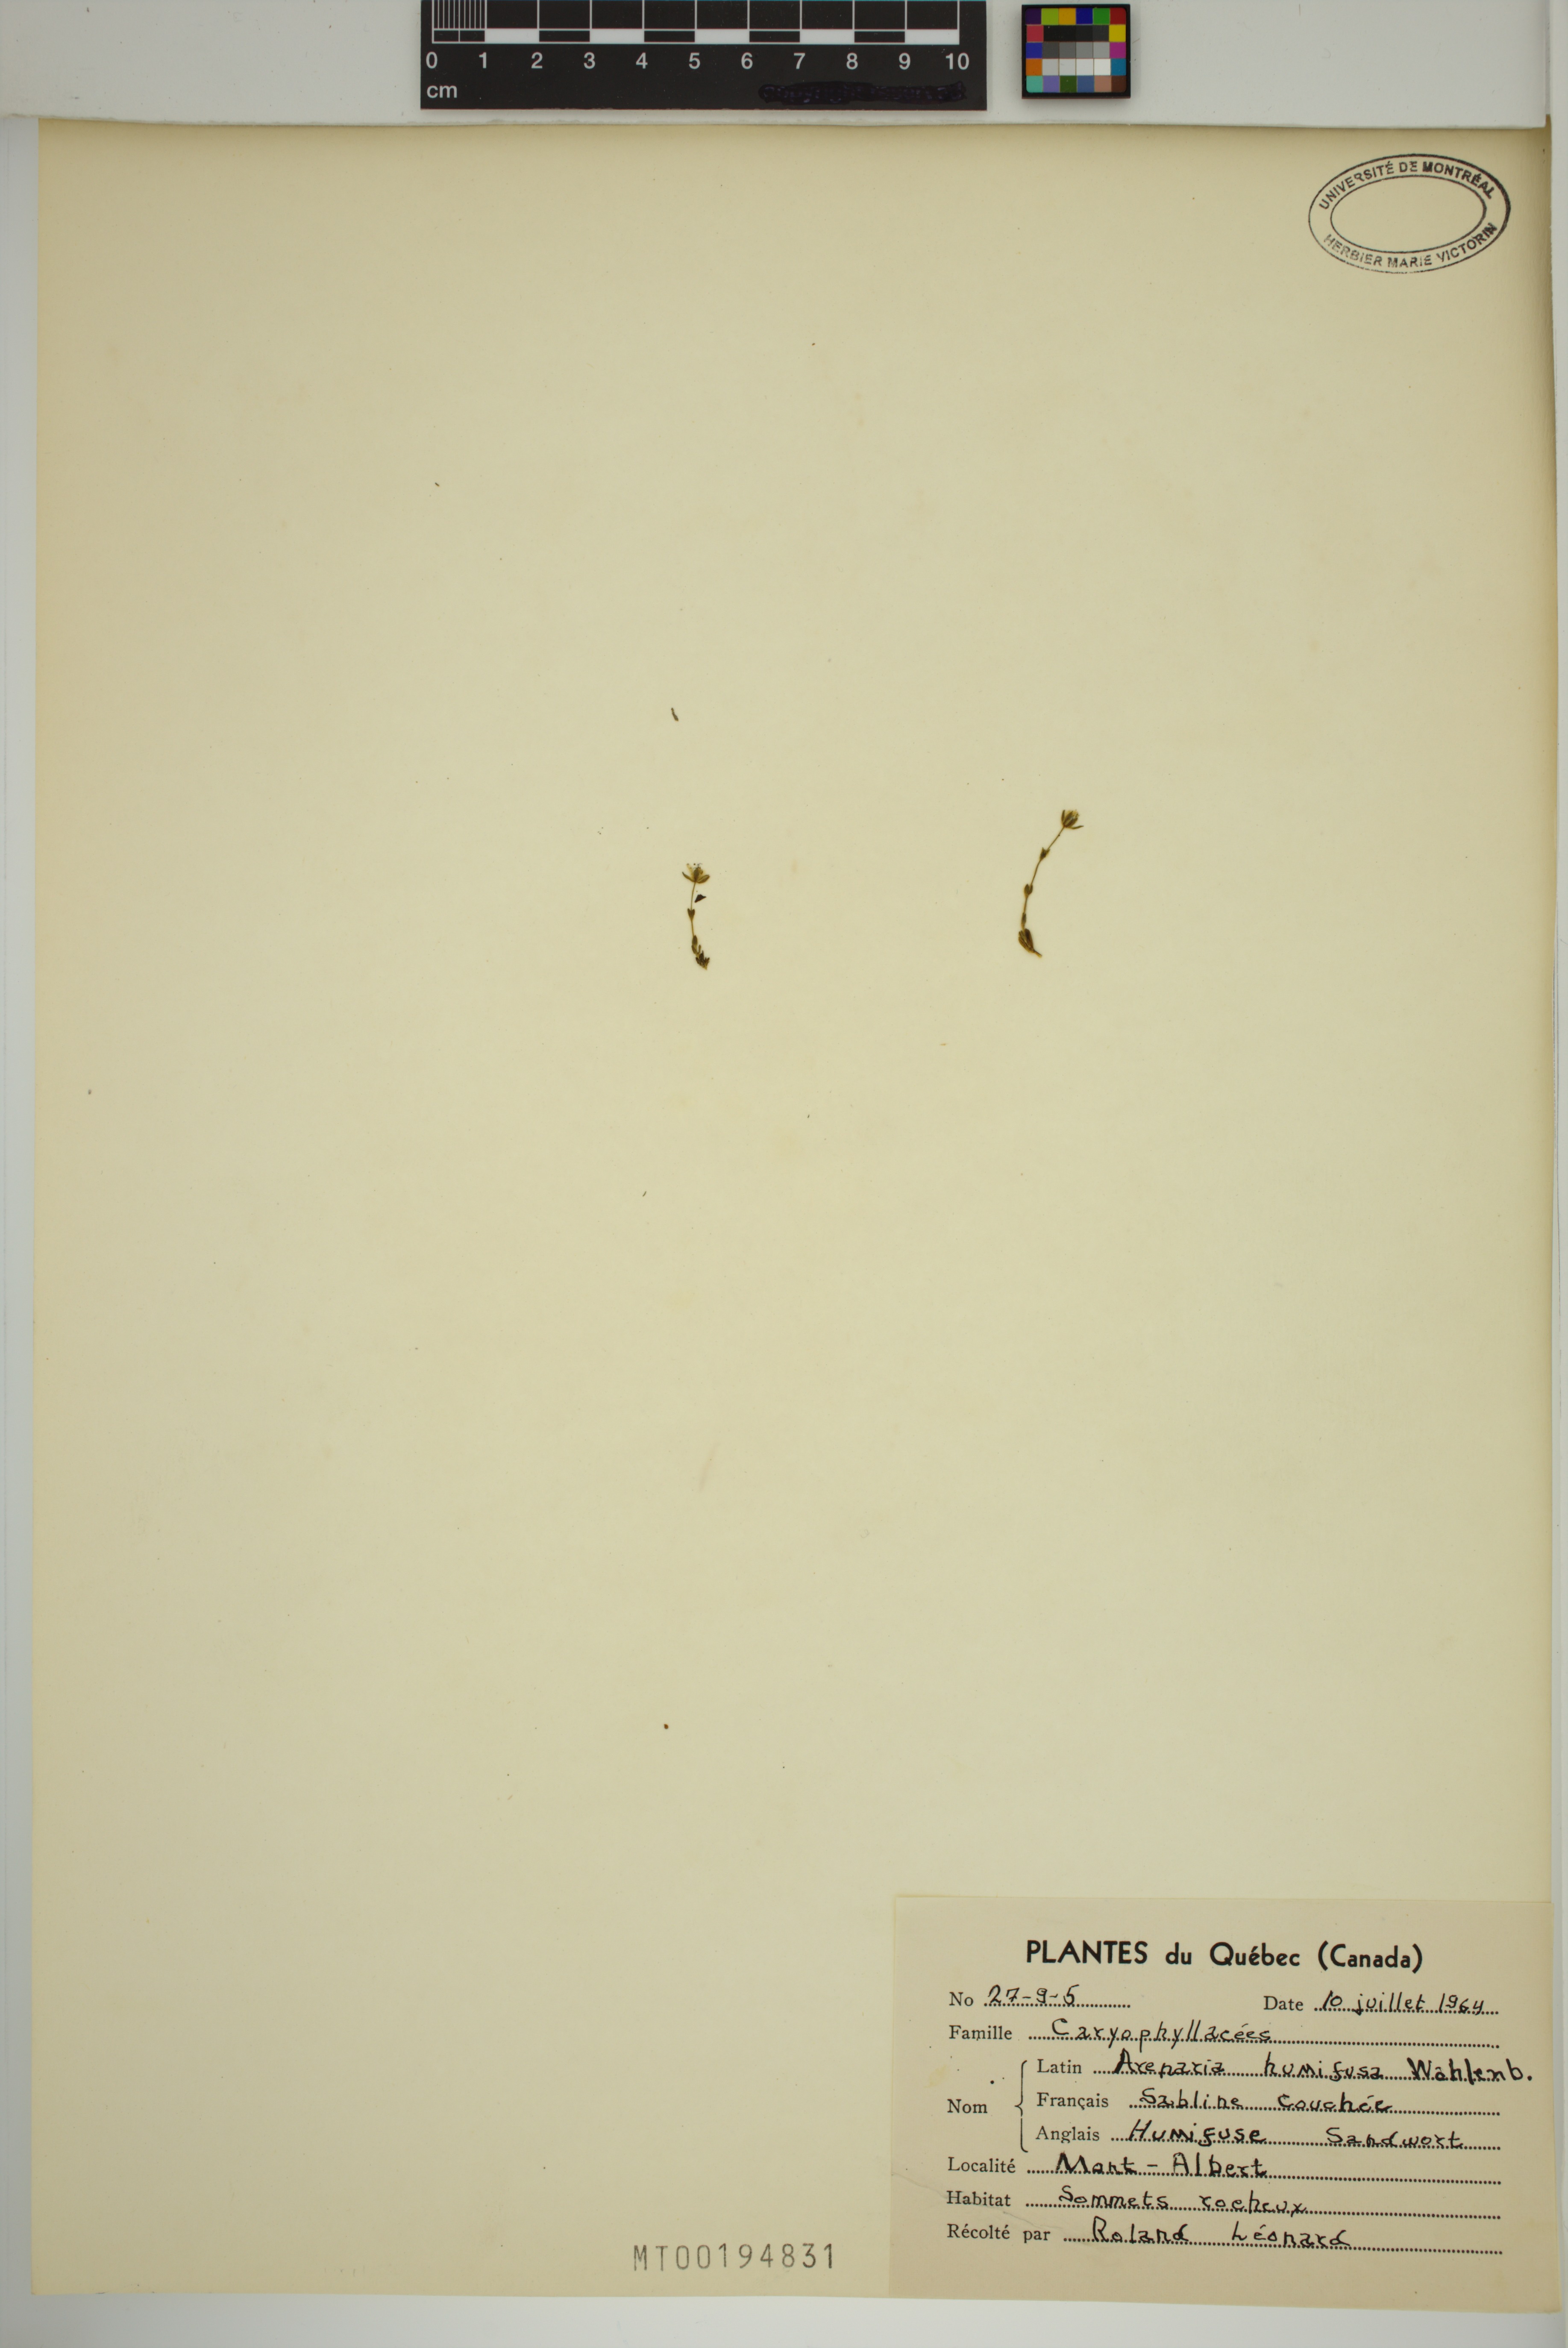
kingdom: Plantae
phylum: Tracheophyta
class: Magnoliopsida
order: Caryophyllales
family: Caryophyllaceae
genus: Arenaria
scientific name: Arenaria humifusa
